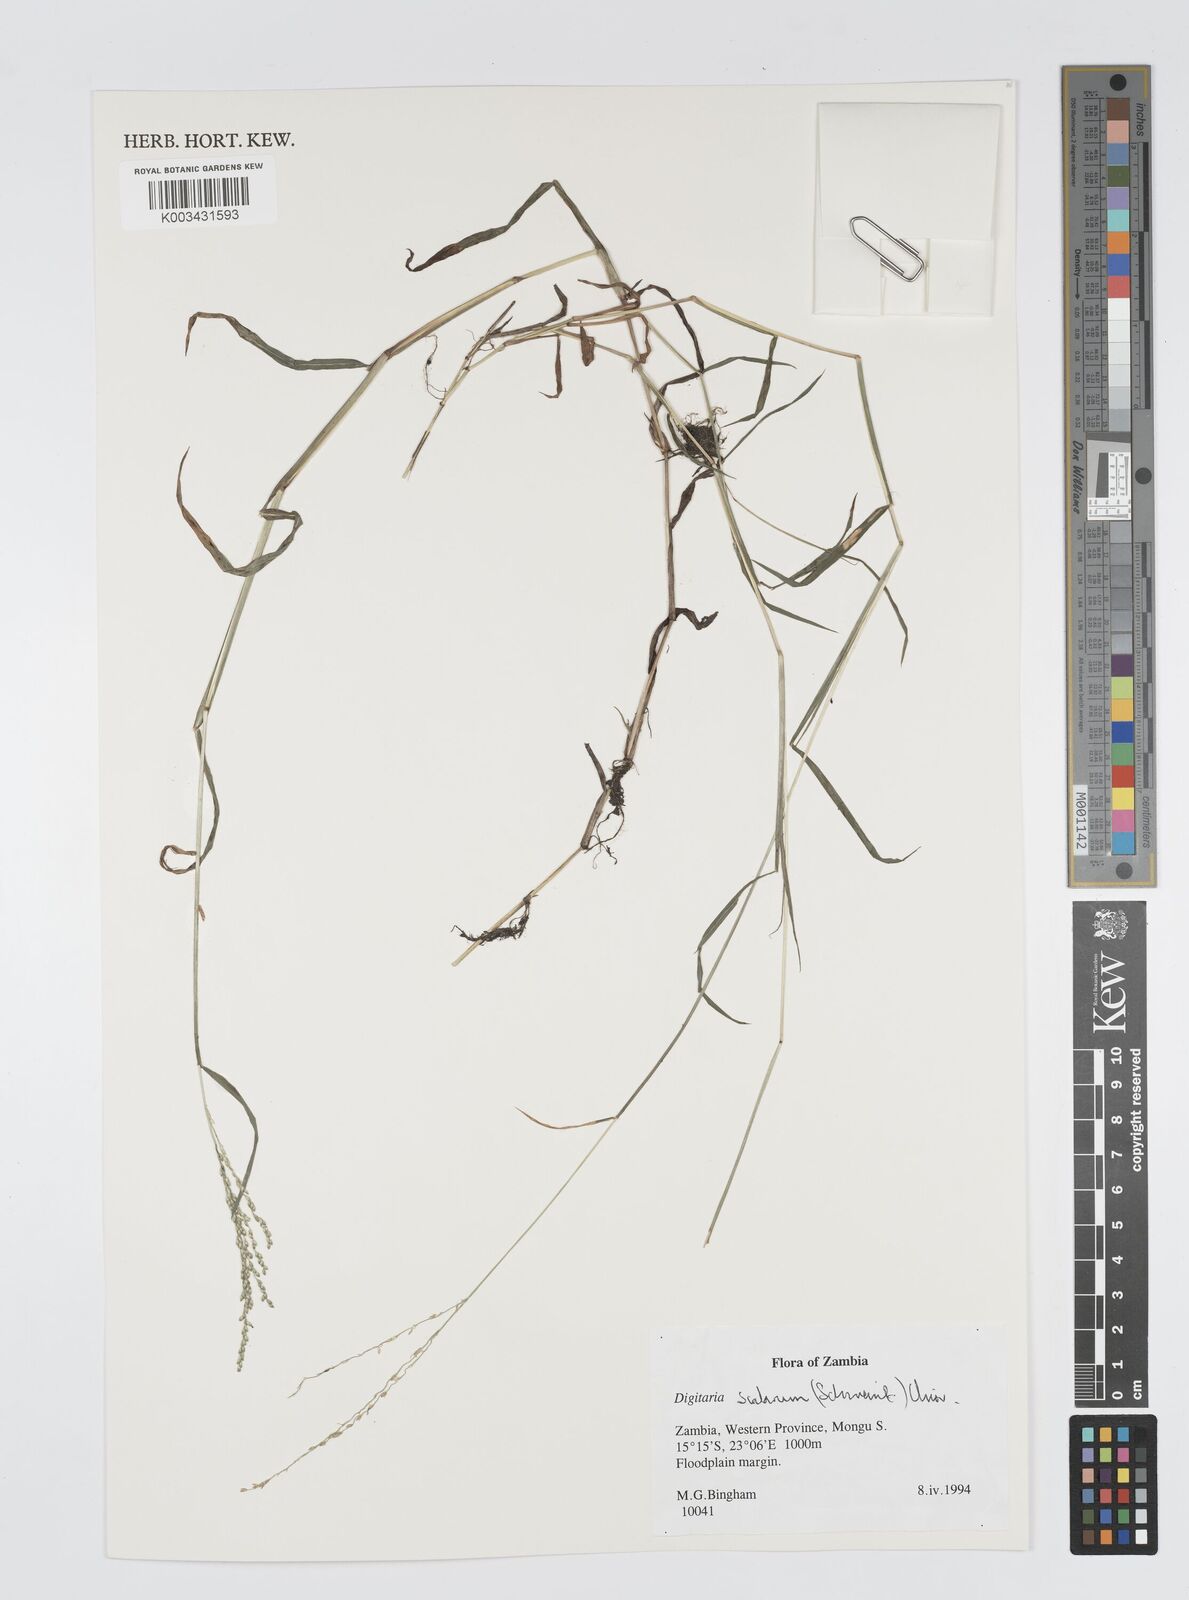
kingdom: Plantae
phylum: Tracheophyta
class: Liliopsida
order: Poales
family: Poaceae
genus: Digitaria
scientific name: Digitaria abyssinica
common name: African couchgrass
